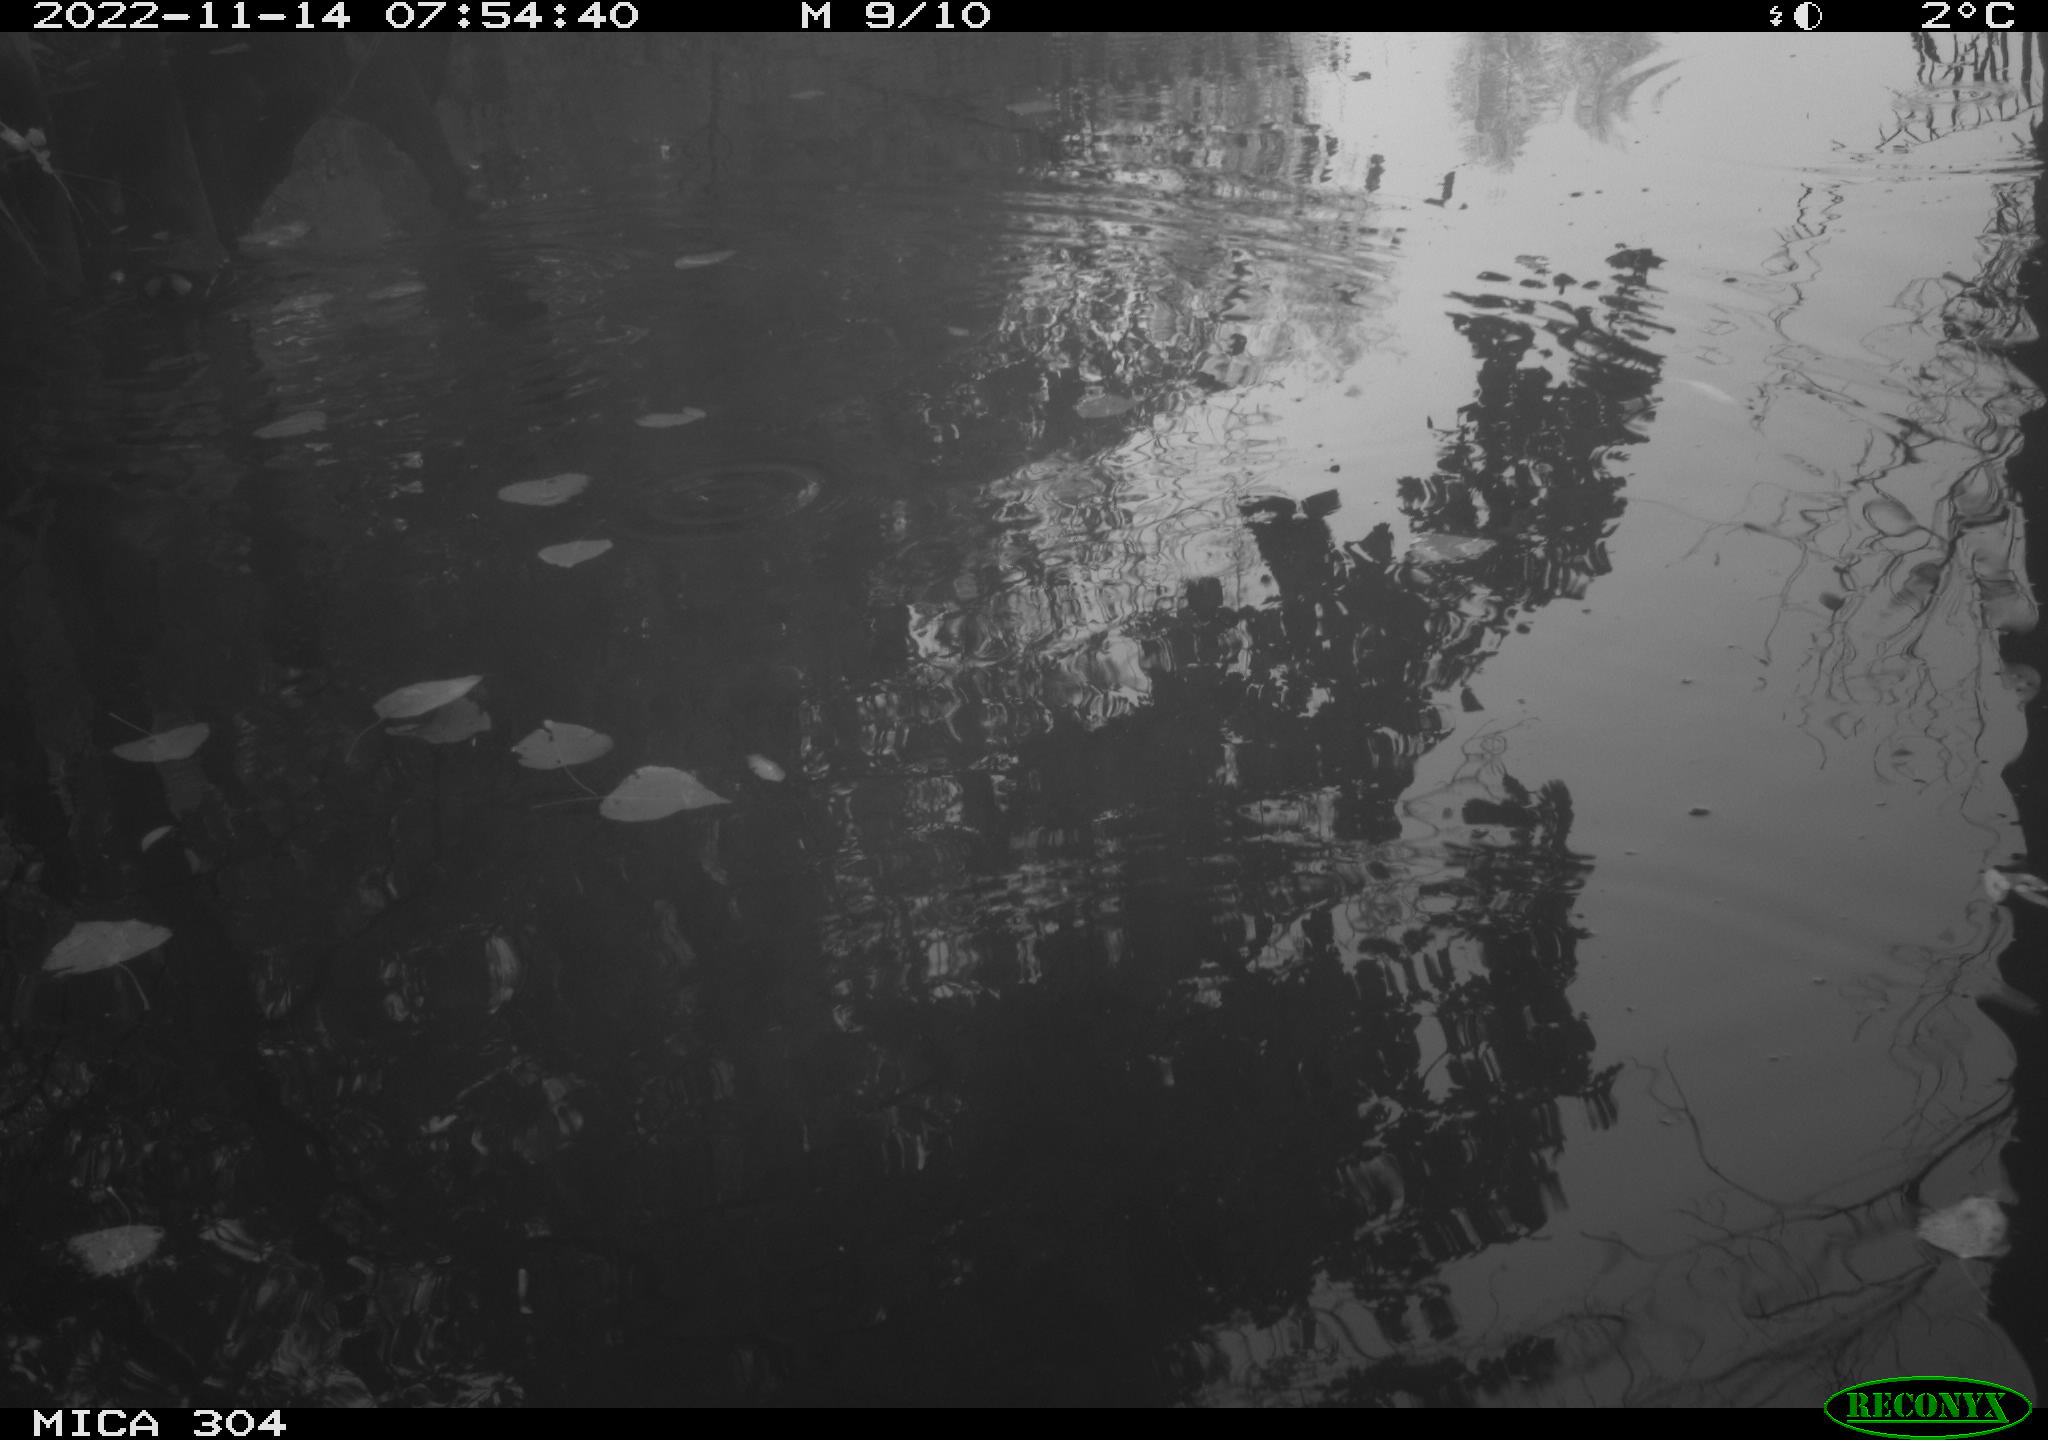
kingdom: Animalia
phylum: Chordata
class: Aves
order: Gruiformes
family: Rallidae
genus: Gallinula
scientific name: Gallinula chloropus
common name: Common moorhen
